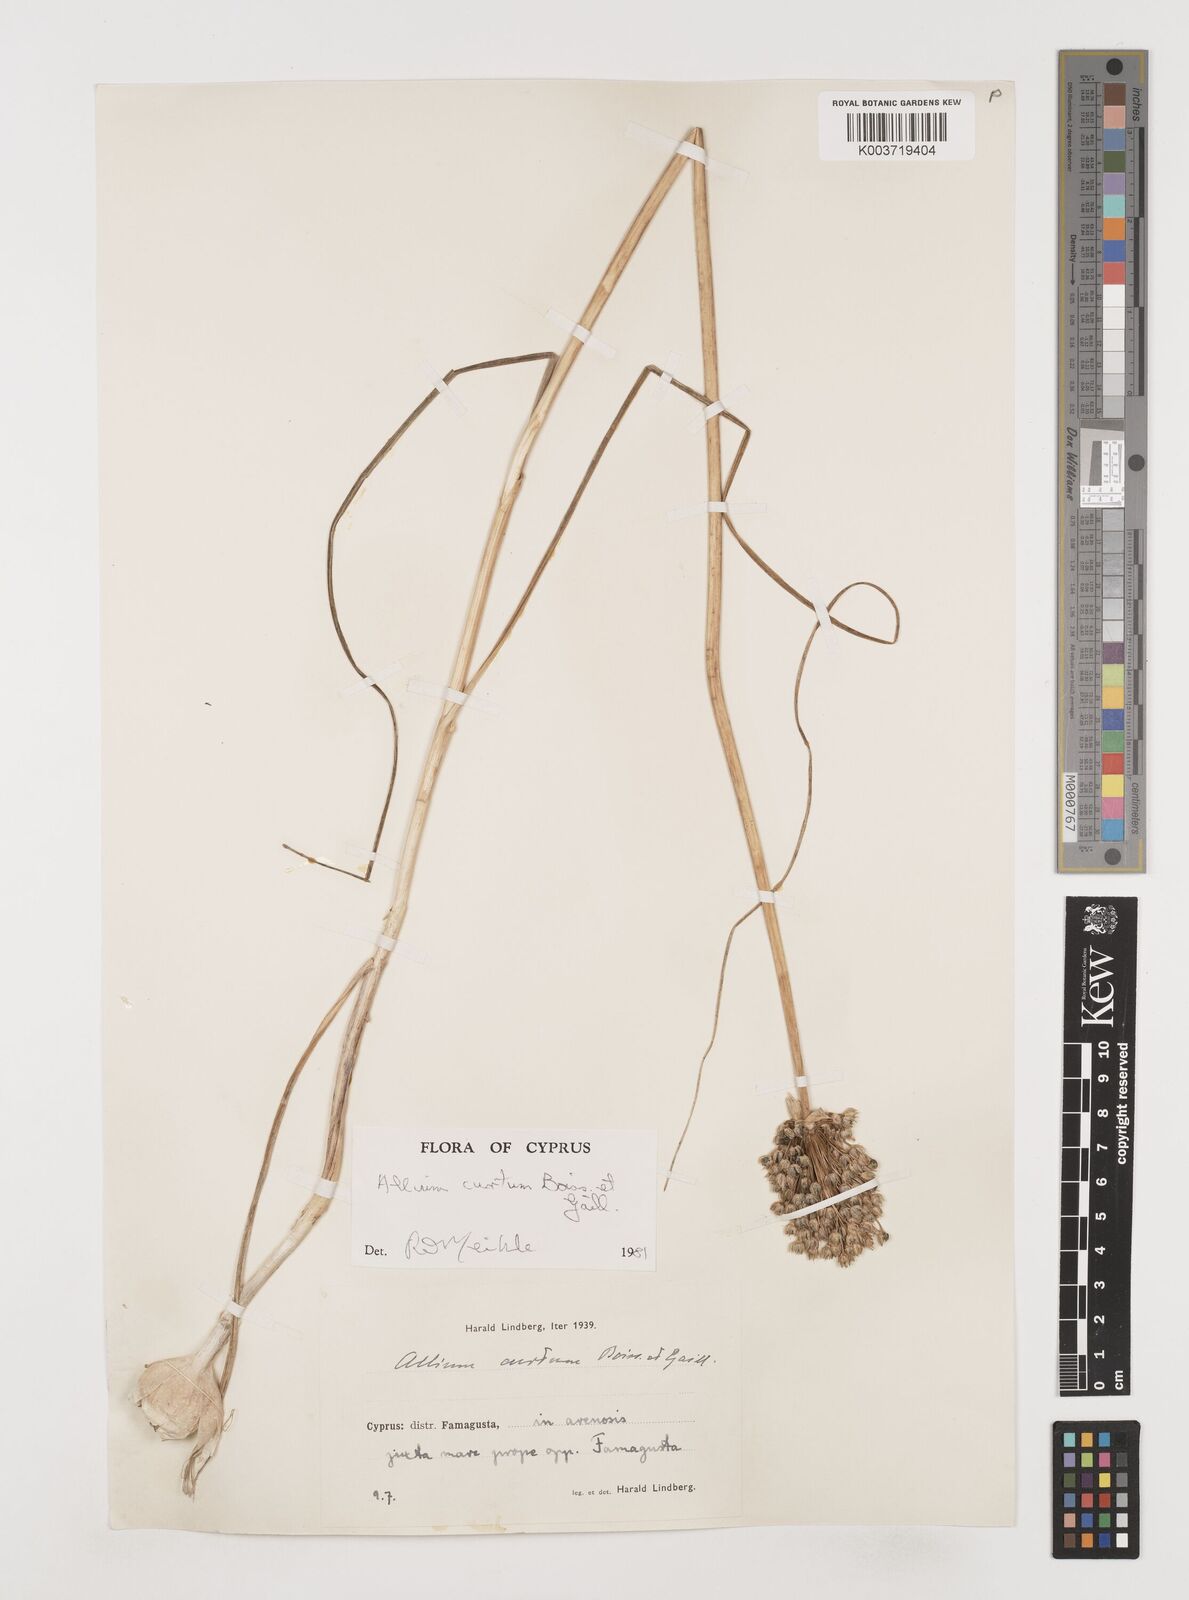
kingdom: Plantae
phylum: Tracheophyta
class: Liliopsida
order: Asparagales
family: Amaryllidaceae
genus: Allium
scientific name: Allium curtum
